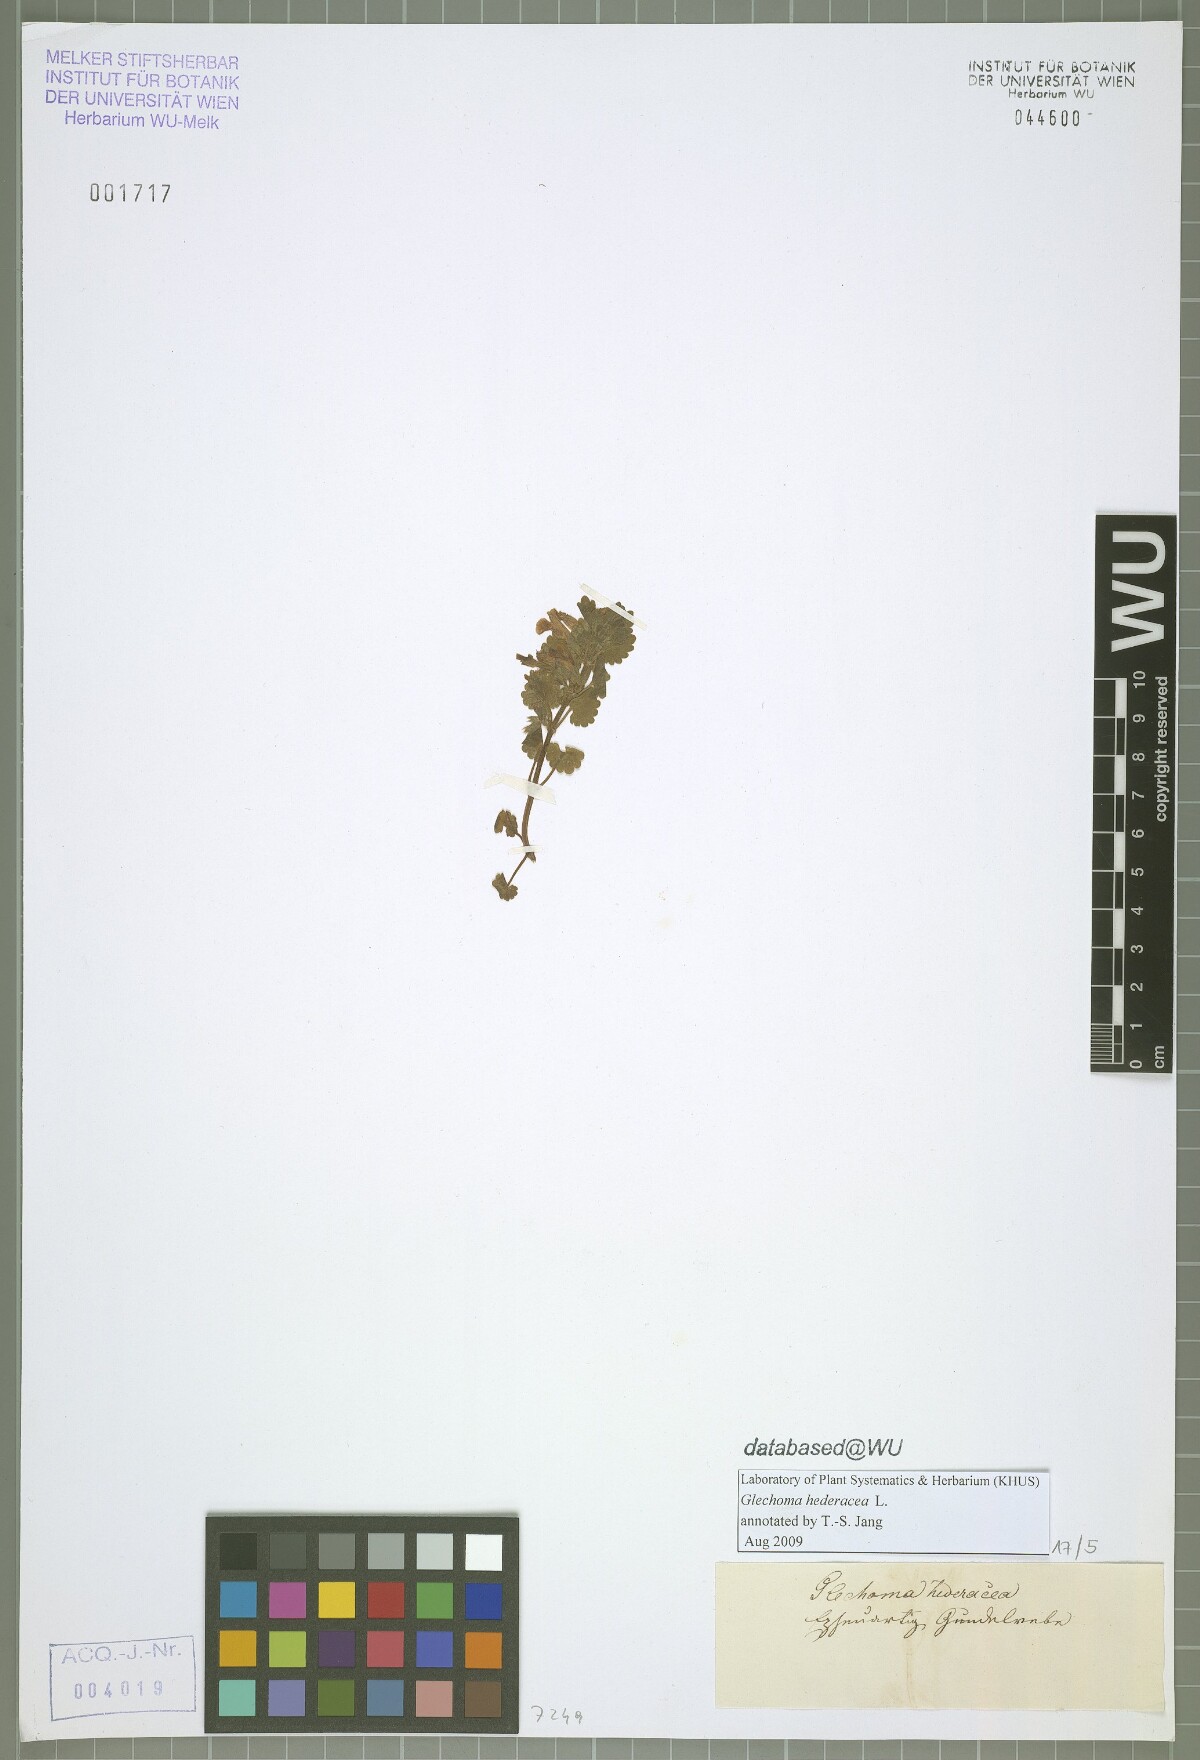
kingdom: Plantae
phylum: Tracheophyta
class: Magnoliopsida
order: Lamiales
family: Lamiaceae
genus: Glechoma
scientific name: Glechoma hederacea
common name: Ground ivy
